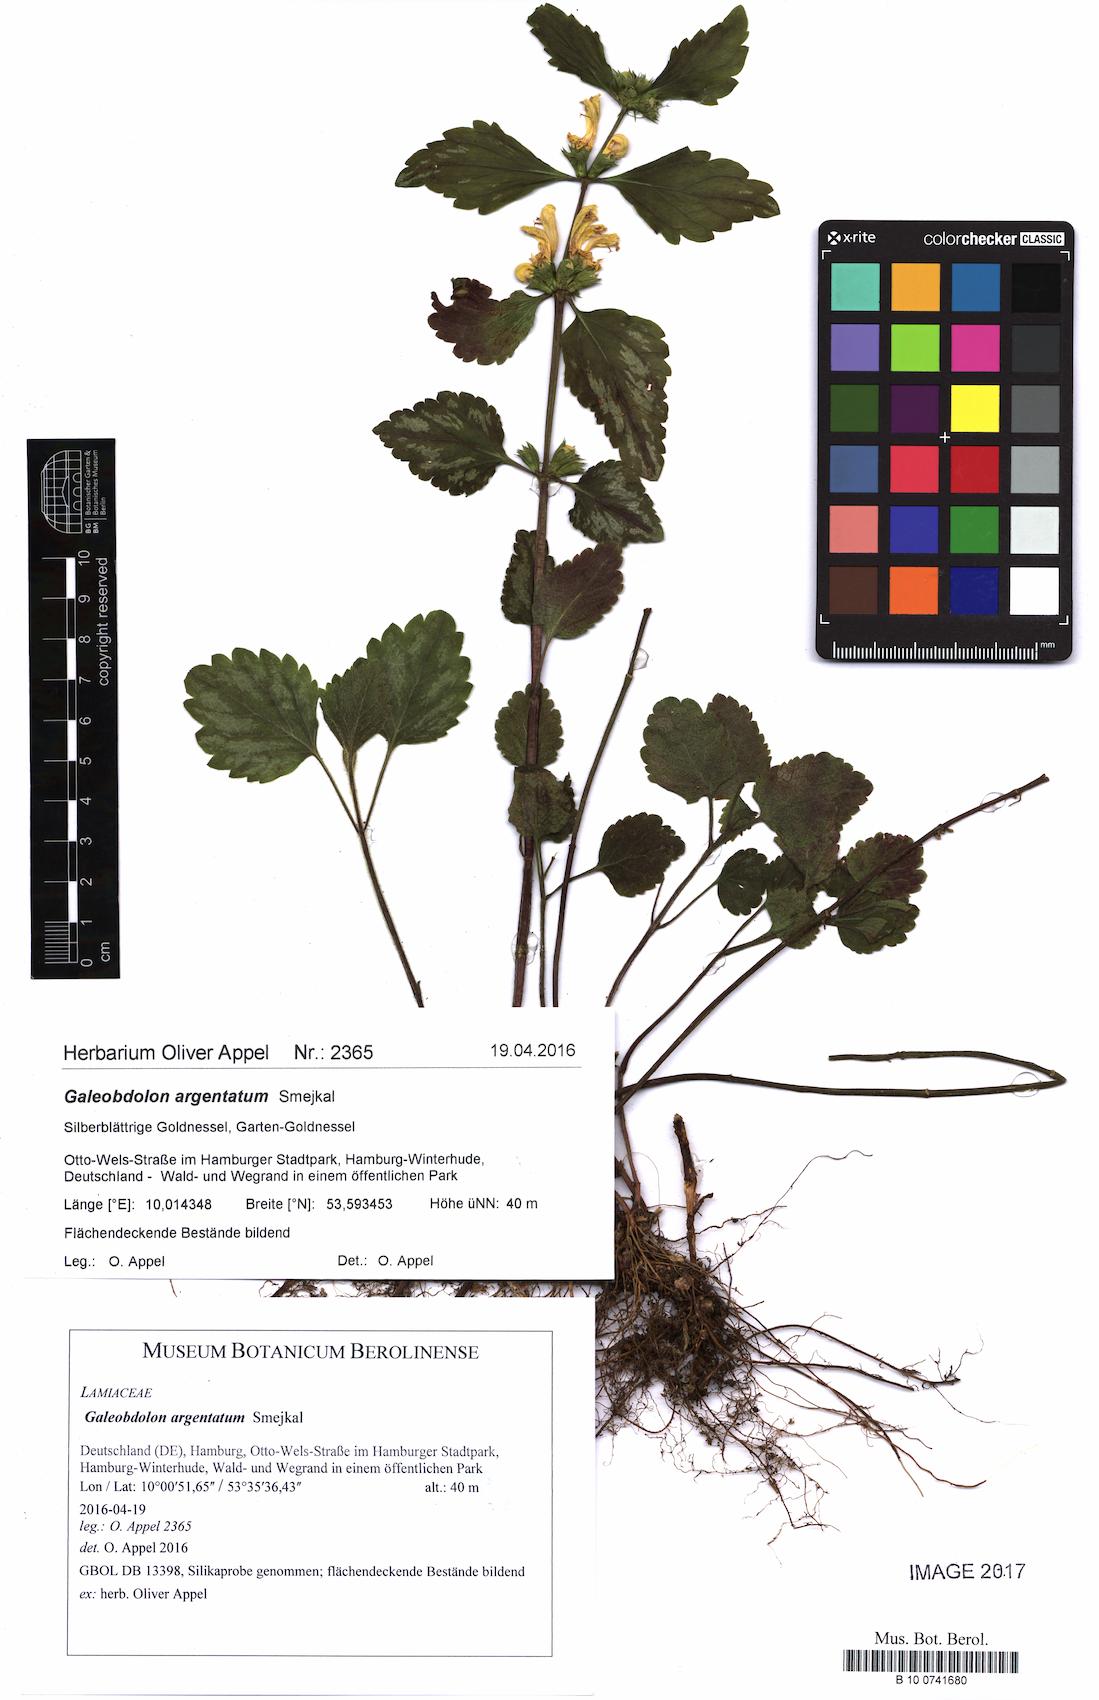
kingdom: Plantae
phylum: Tracheophyta
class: Magnoliopsida
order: Lamiales
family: Lamiaceae
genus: Lamium
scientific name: Lamium galeobdolon
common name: Yellow archangel
